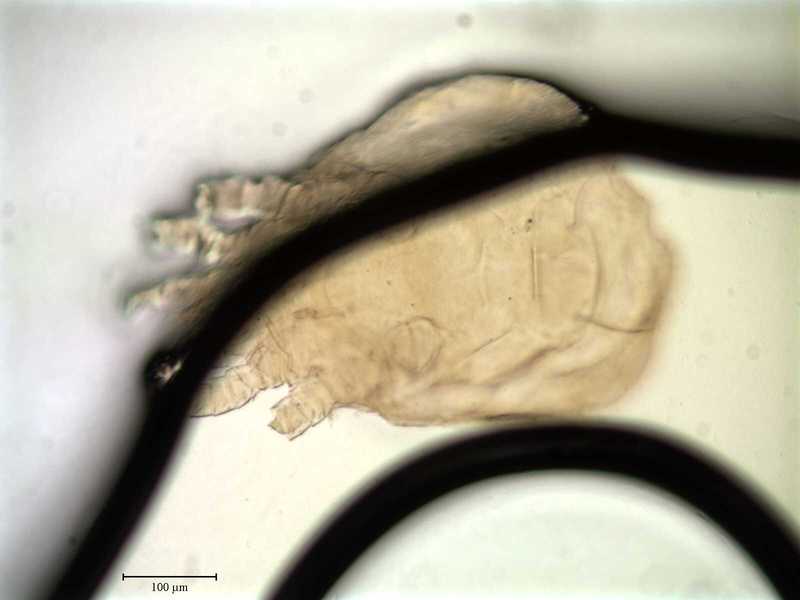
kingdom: Animalia
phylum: Arthropoda
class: Arachnida
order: Mesostigmata
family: Uroactiniidae
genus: Uroactinia
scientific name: Uroactinia hippocrepoides
